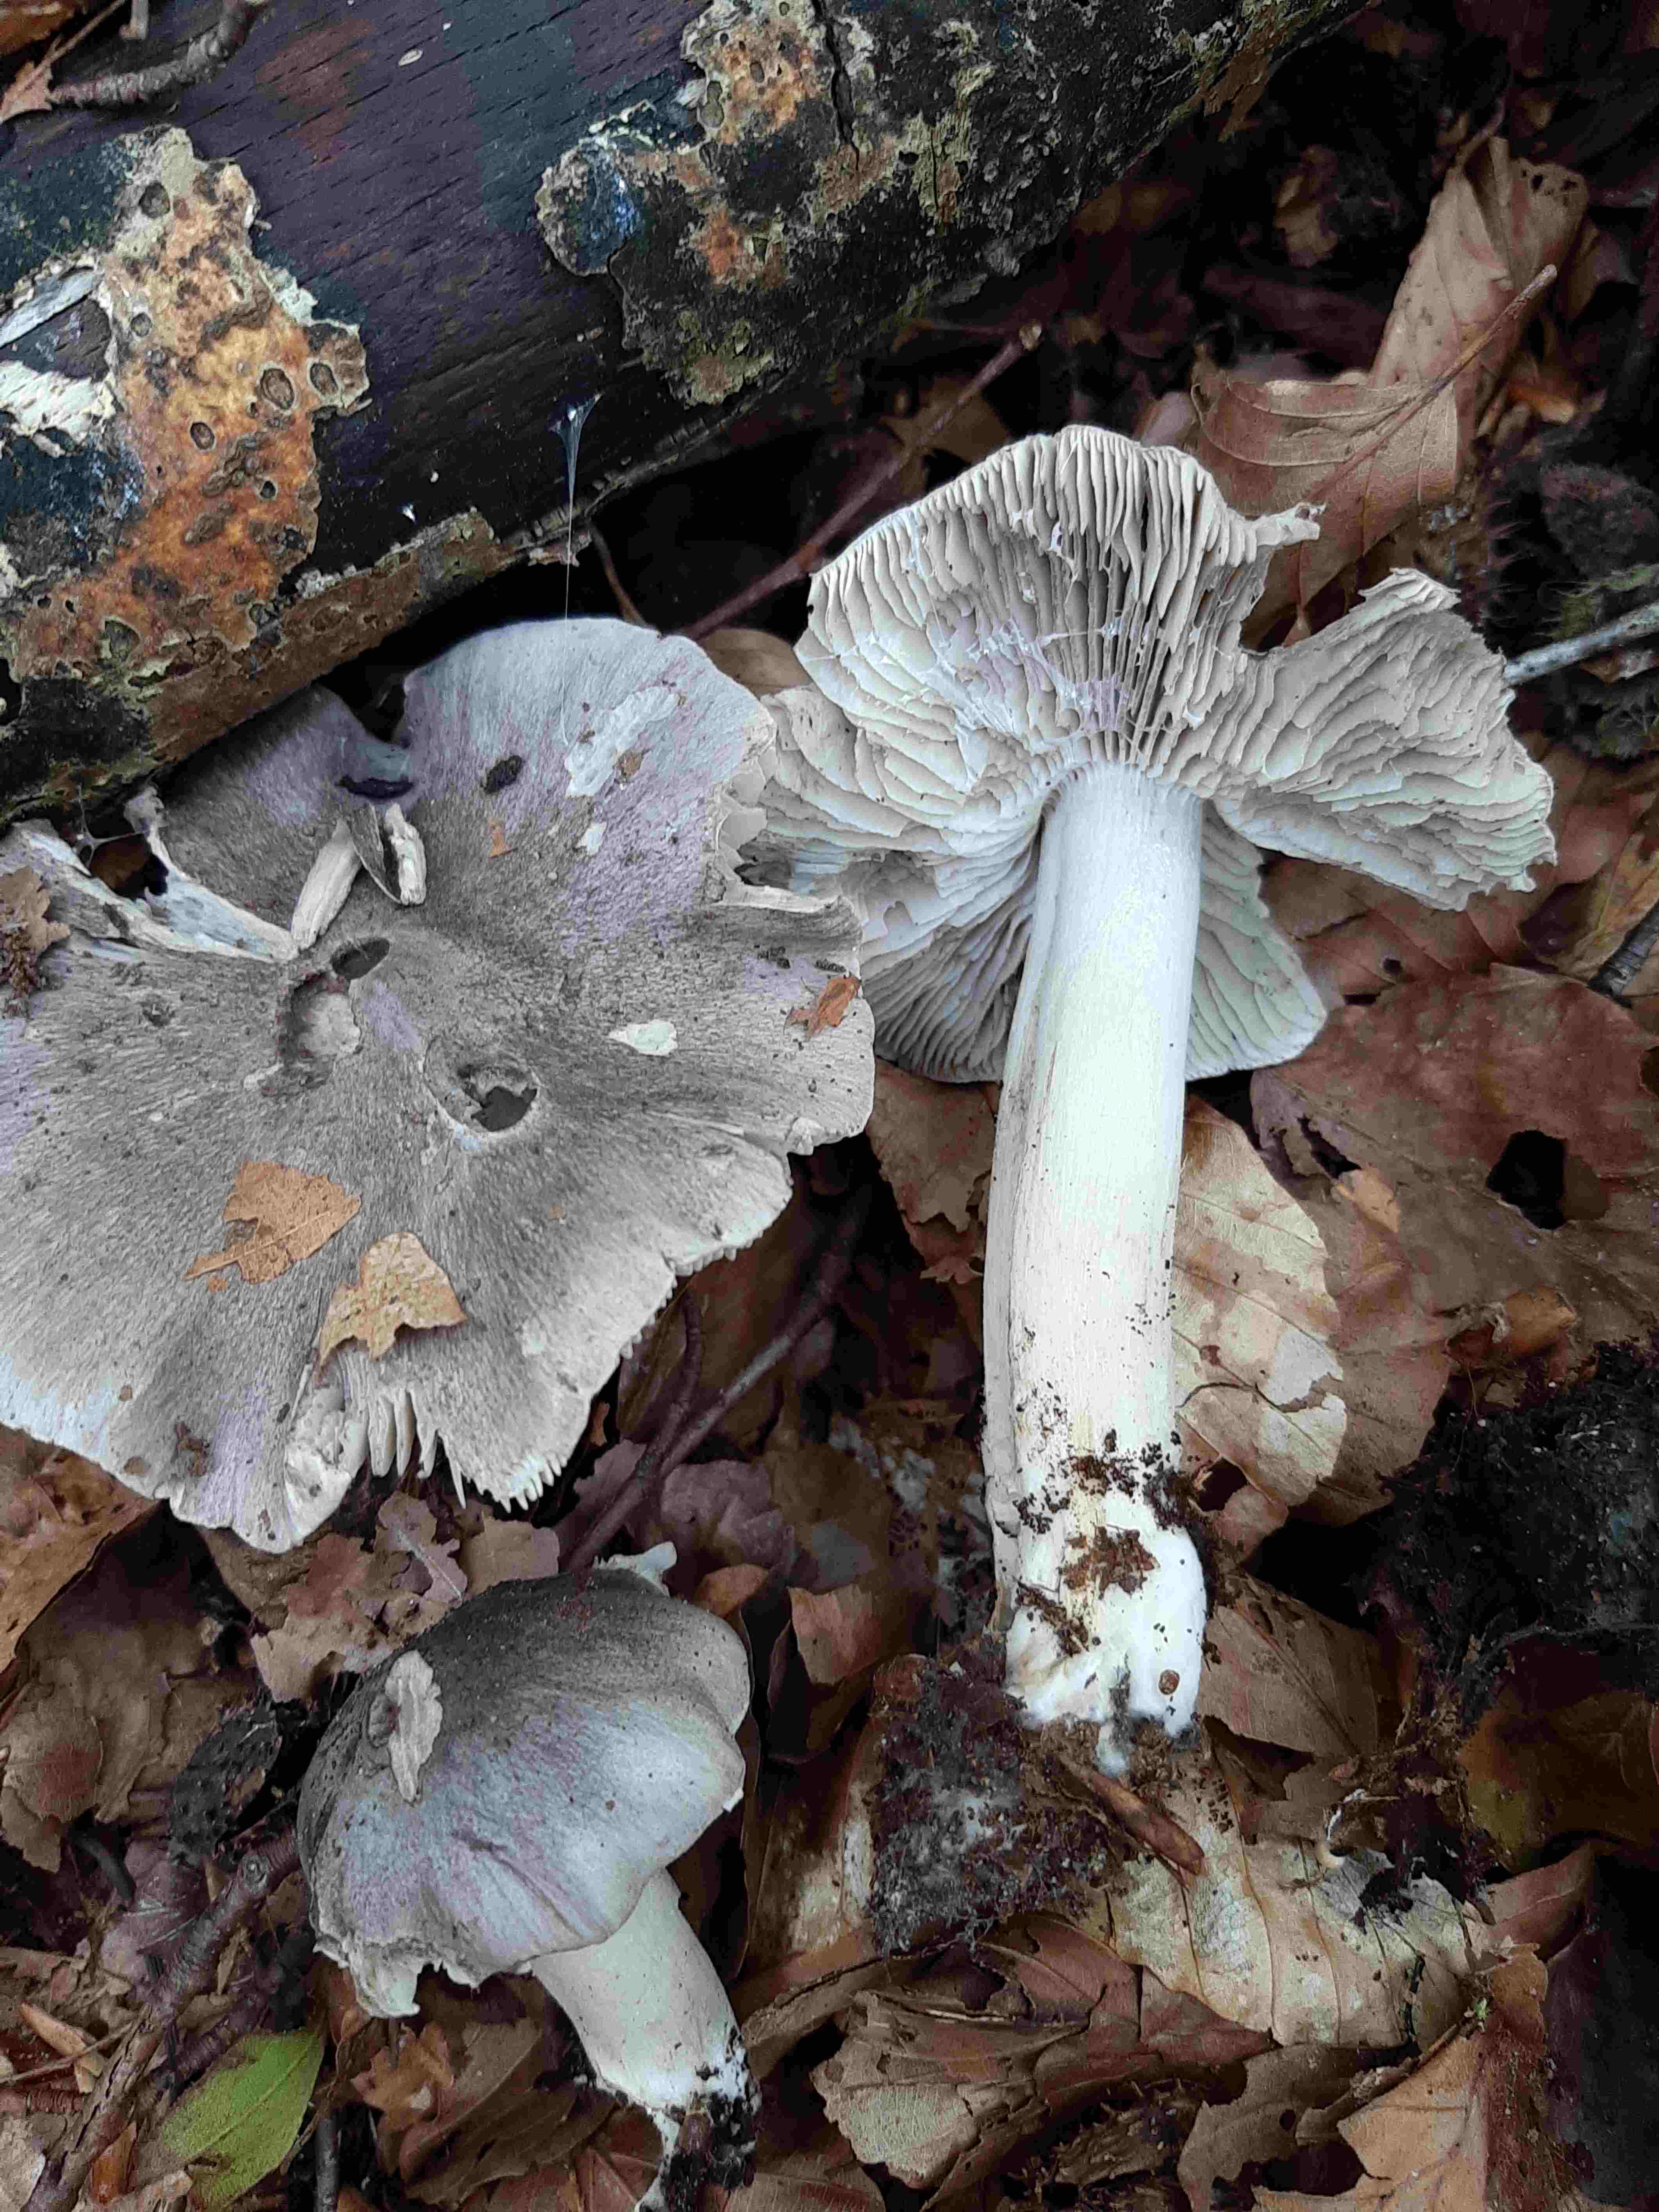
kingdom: Fungi
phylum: Basidiomycota
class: Agaricomycetes
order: Agaricales
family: Tricholomataceae
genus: Tricholoma
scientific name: Tricholoma sciodes
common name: stribet ridderhat
